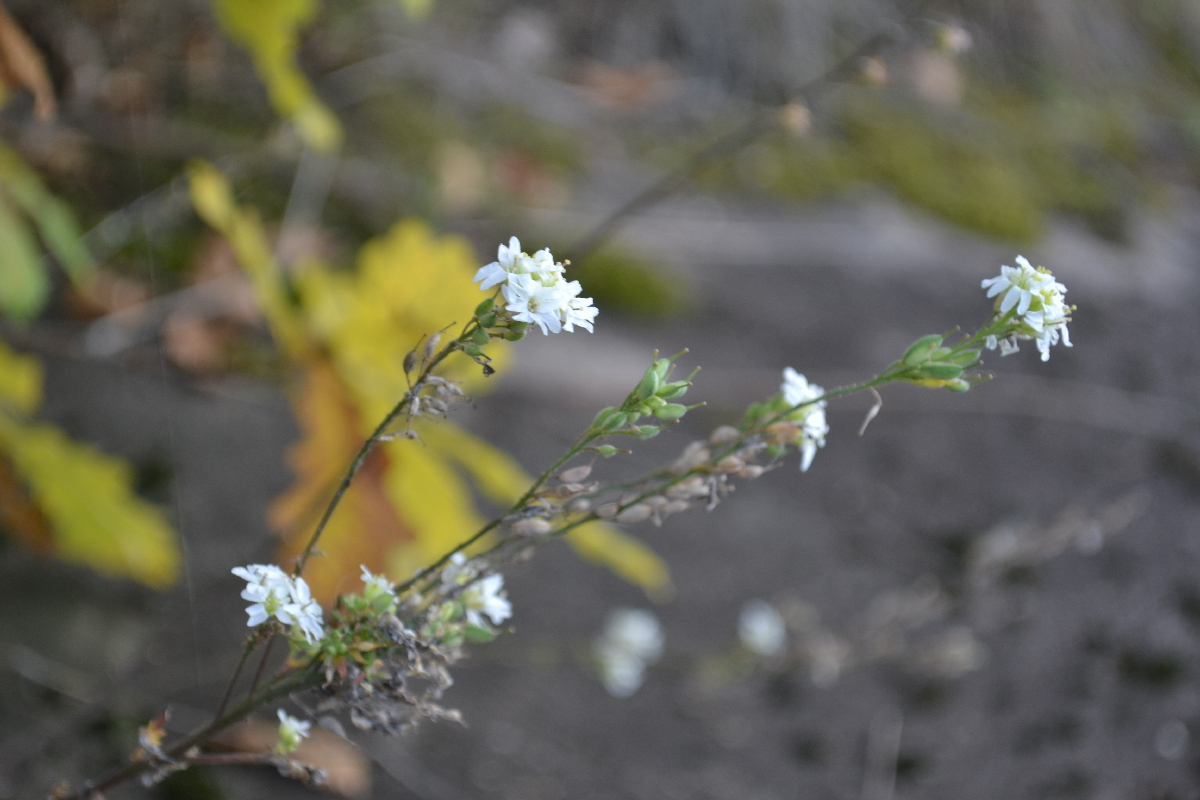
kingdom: Plantae
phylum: Tracheophyta
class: Magnoliopsida
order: Brassicales
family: Brassicaceae
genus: Berteroa
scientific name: Berteroa incana
